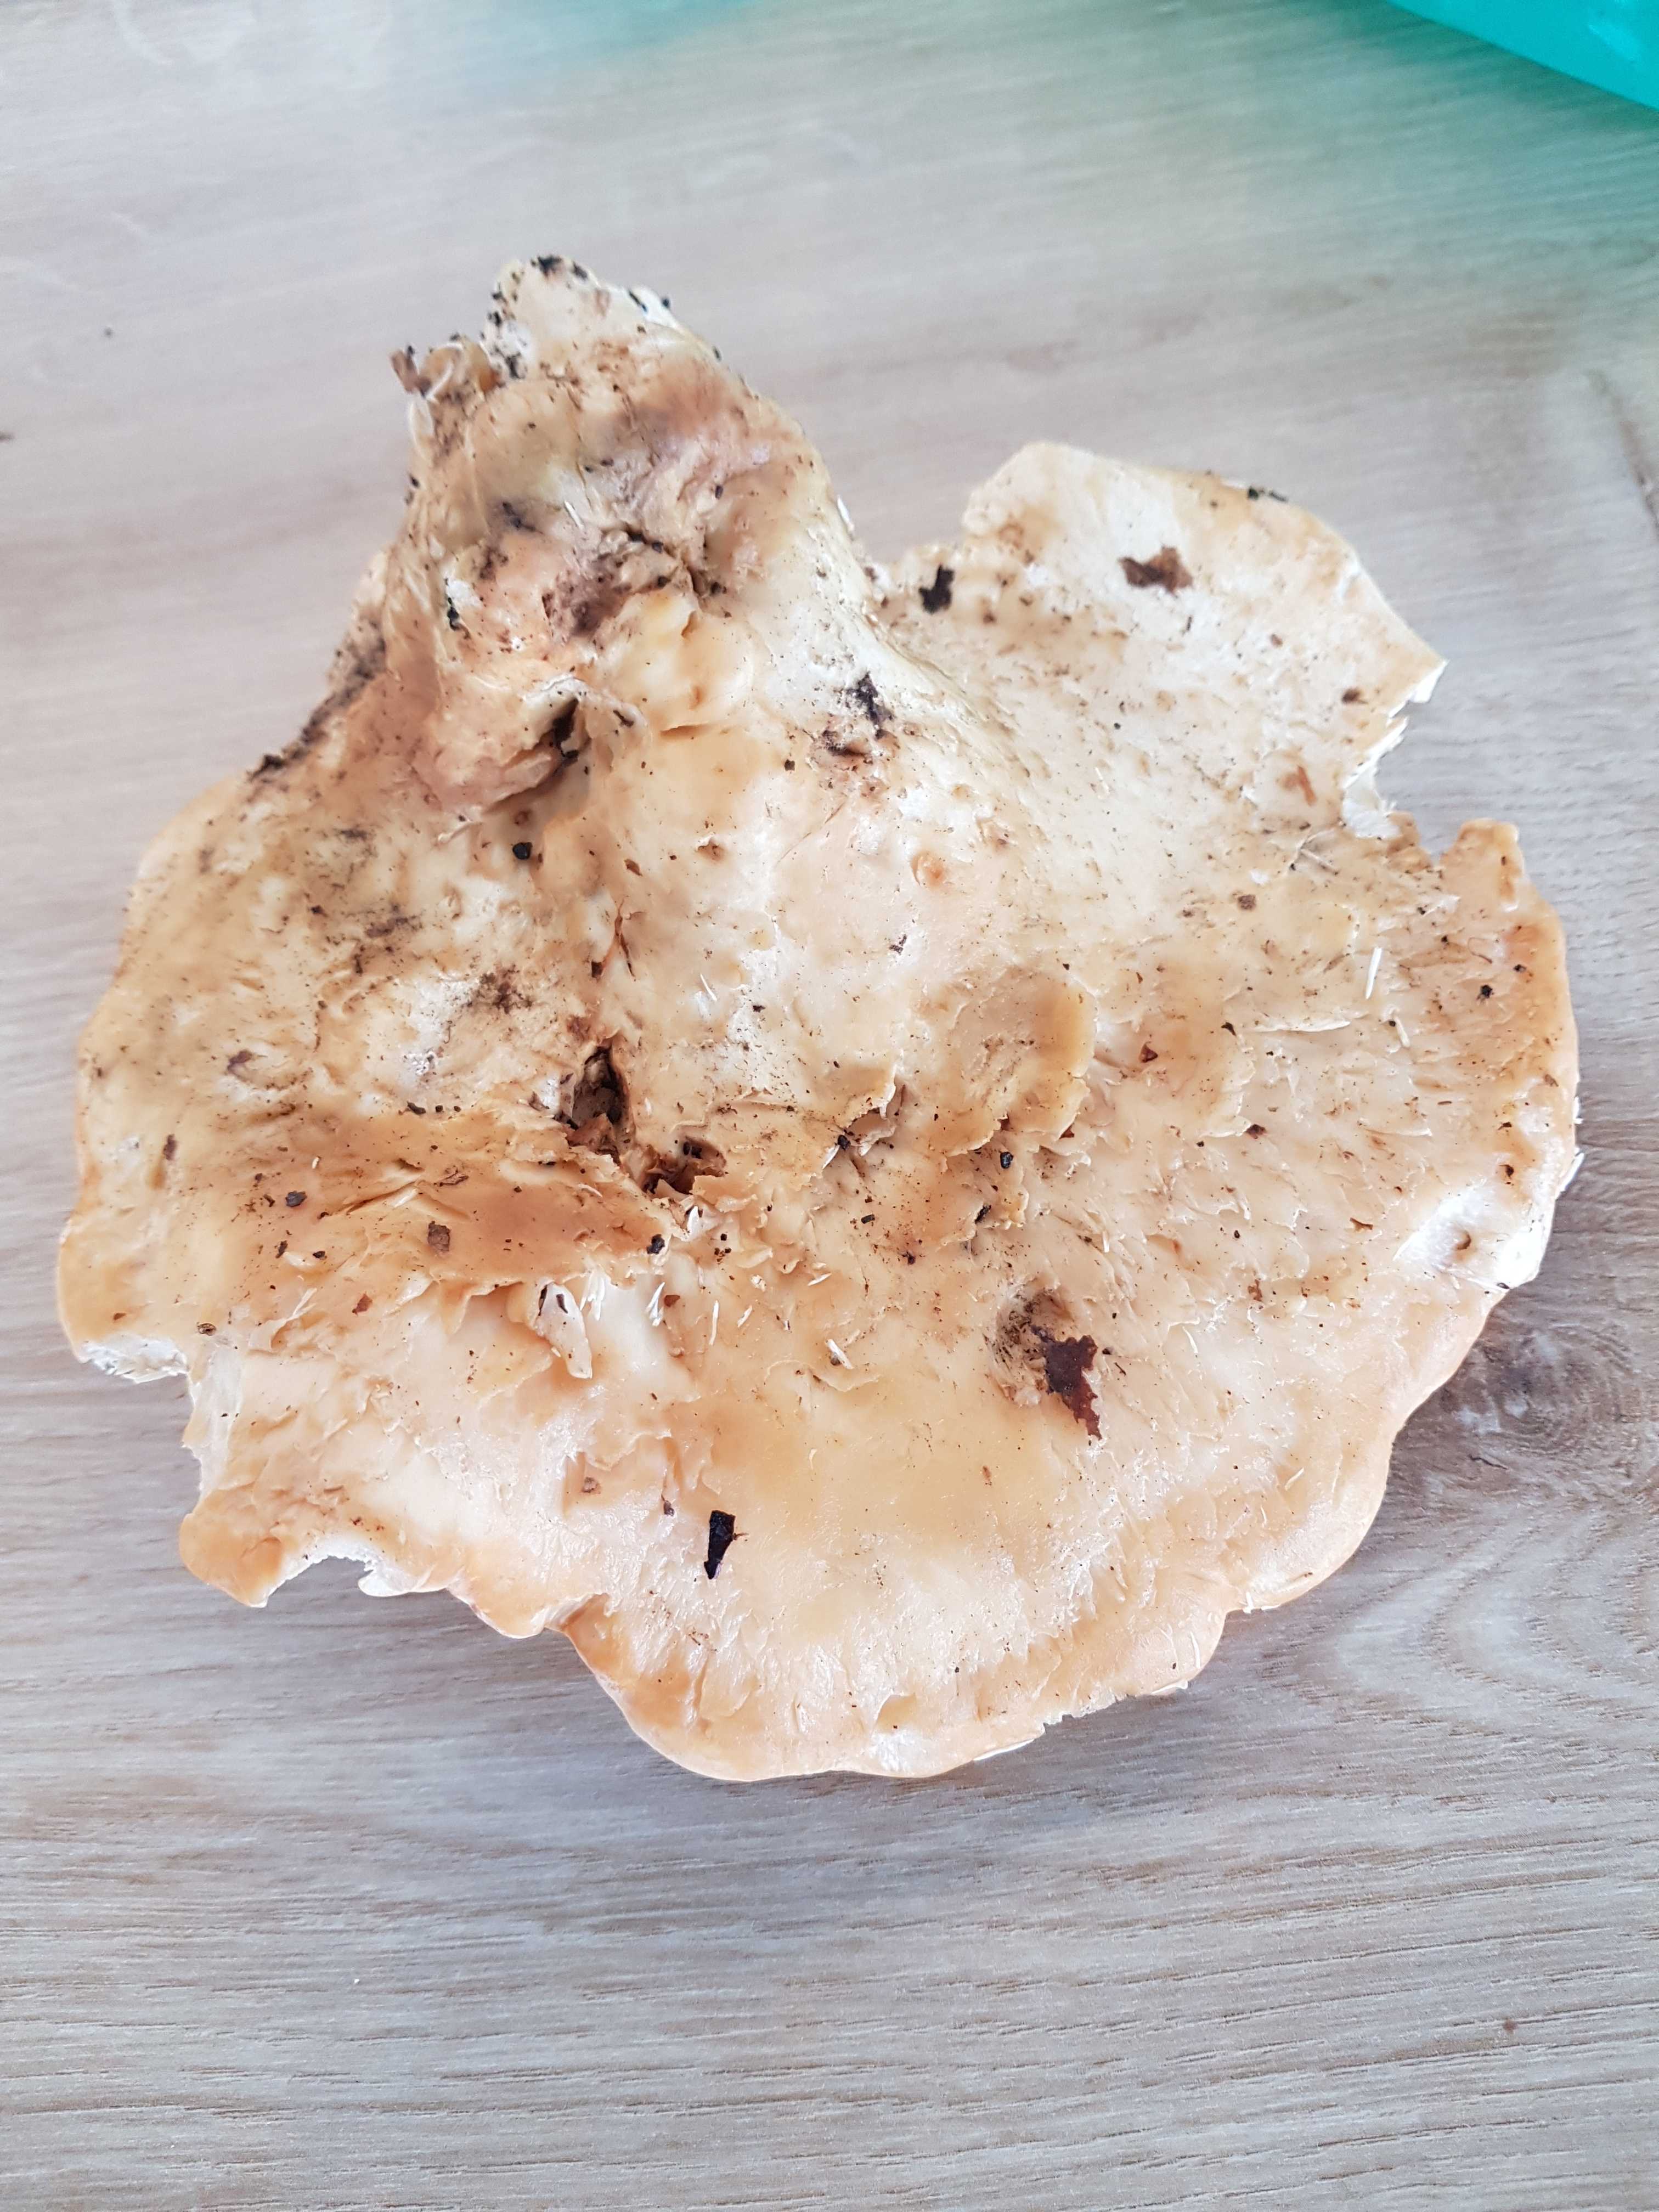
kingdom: Fungi
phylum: Basidiomycota
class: Agaricomycetes
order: Cantharellales
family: Hydnaceae
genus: Hydnum
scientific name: Hydnum
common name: pigsvamp
